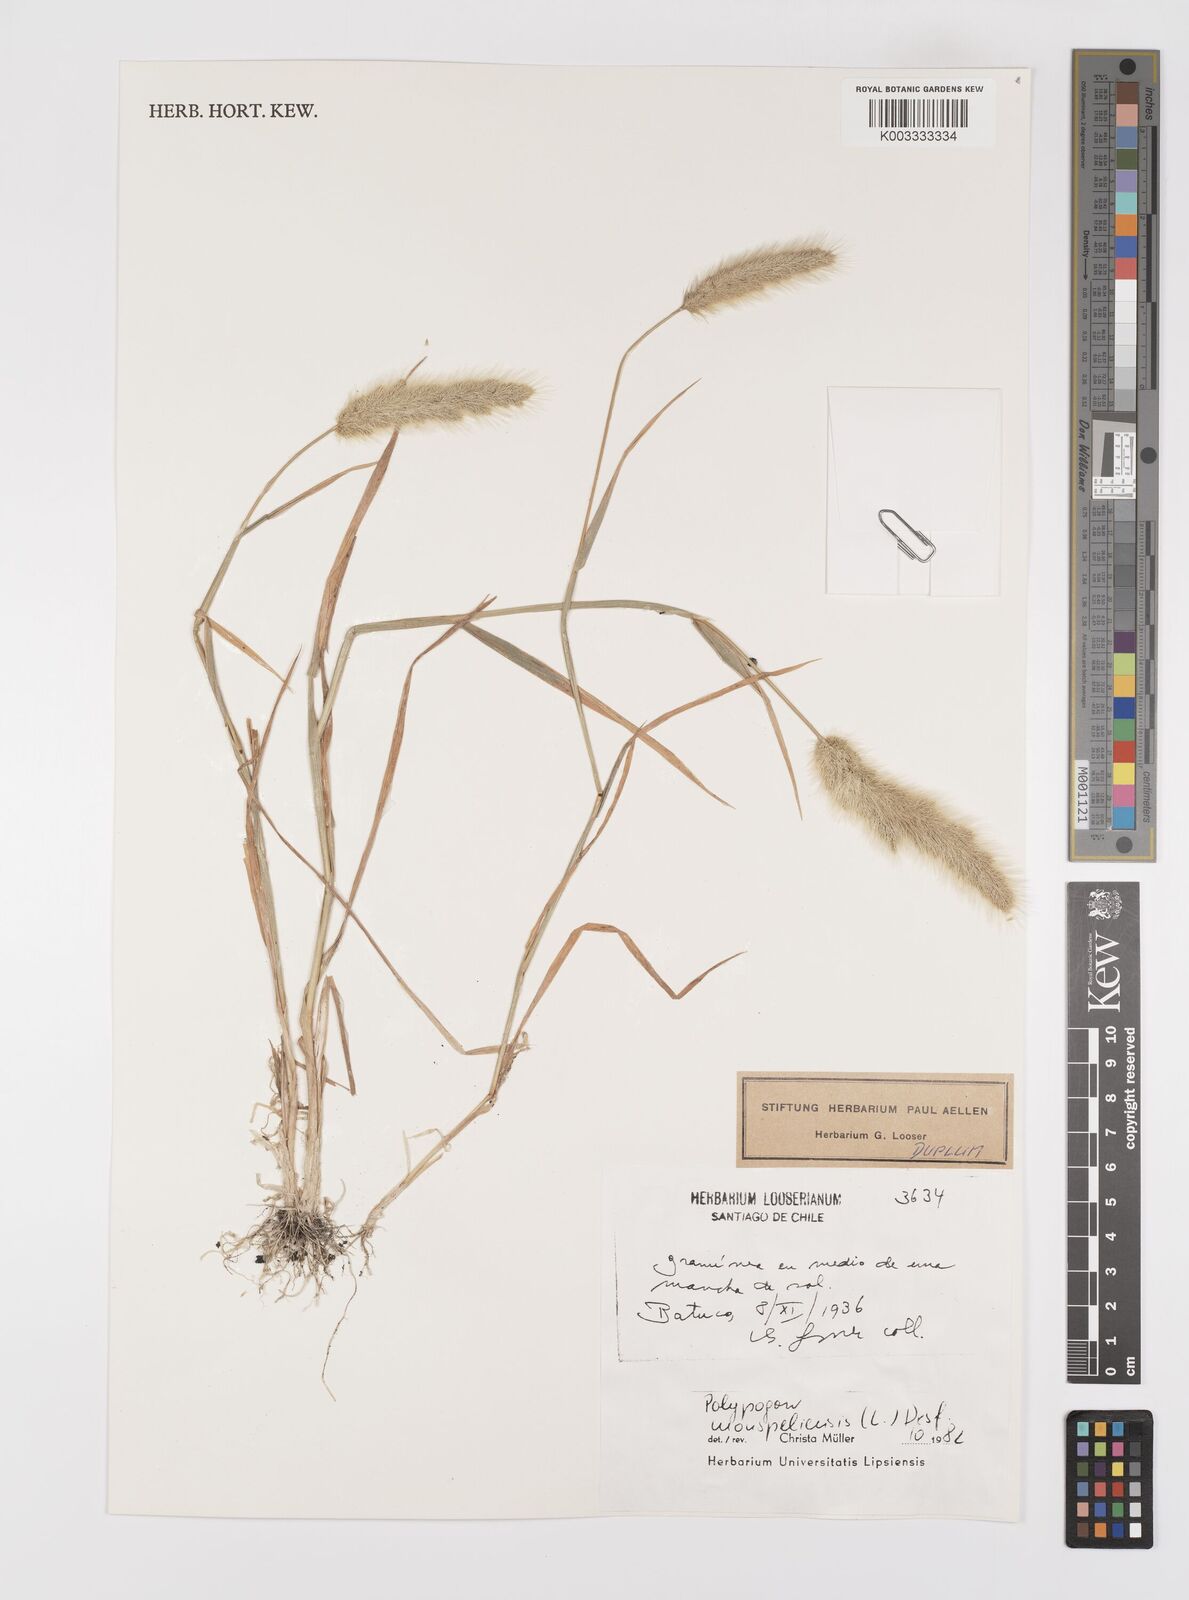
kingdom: Plantae
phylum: Tracheophyta
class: Liliopsida
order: Poales
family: Poaceae
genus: Polypogon
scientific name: Polypogon monspeliensis
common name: Annual rabbitsfoot grass
